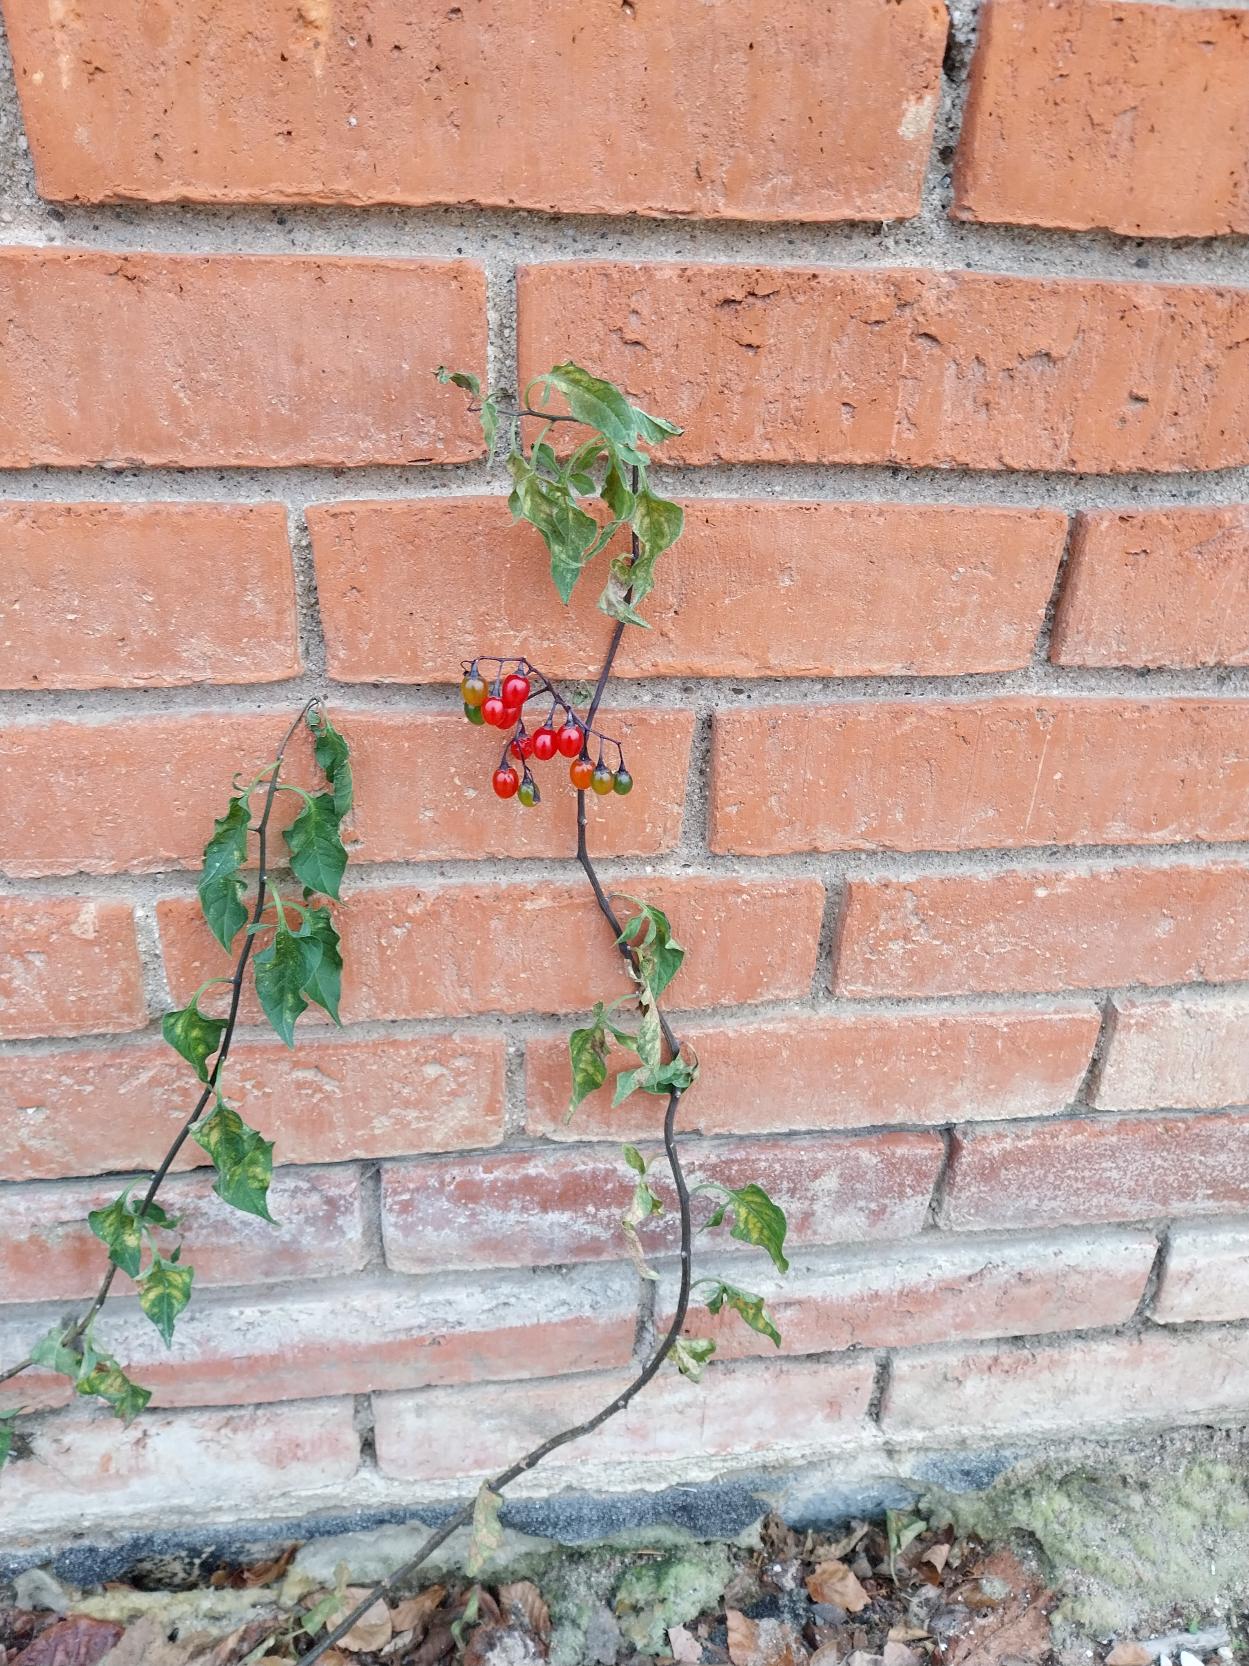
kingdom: Plantae
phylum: Tracheophyta
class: Magnoliopsida
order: Solanales
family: Solanaceae
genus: Solanum
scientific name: Solanum dulcamara
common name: Bittersød natskygge
